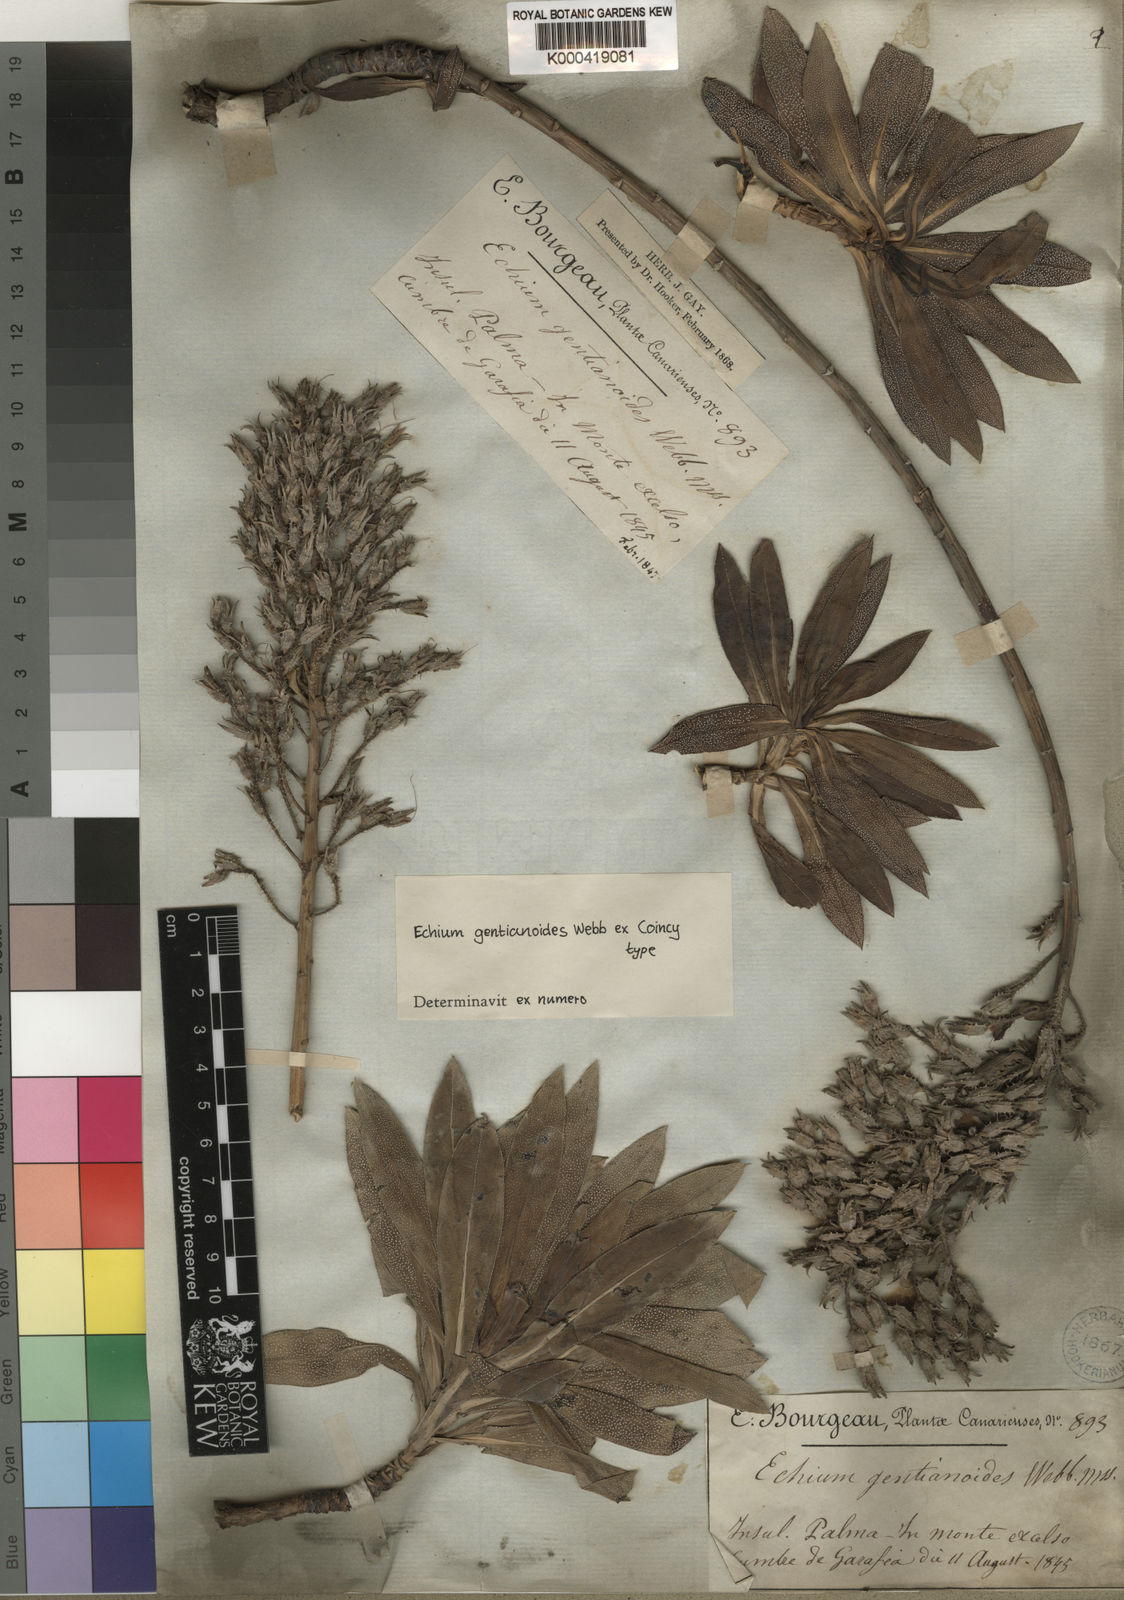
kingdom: Plantae
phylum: Tracheophyta
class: Magnoliopsida
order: Boraginales
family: Boraginaceae
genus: Echium
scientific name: Echium
